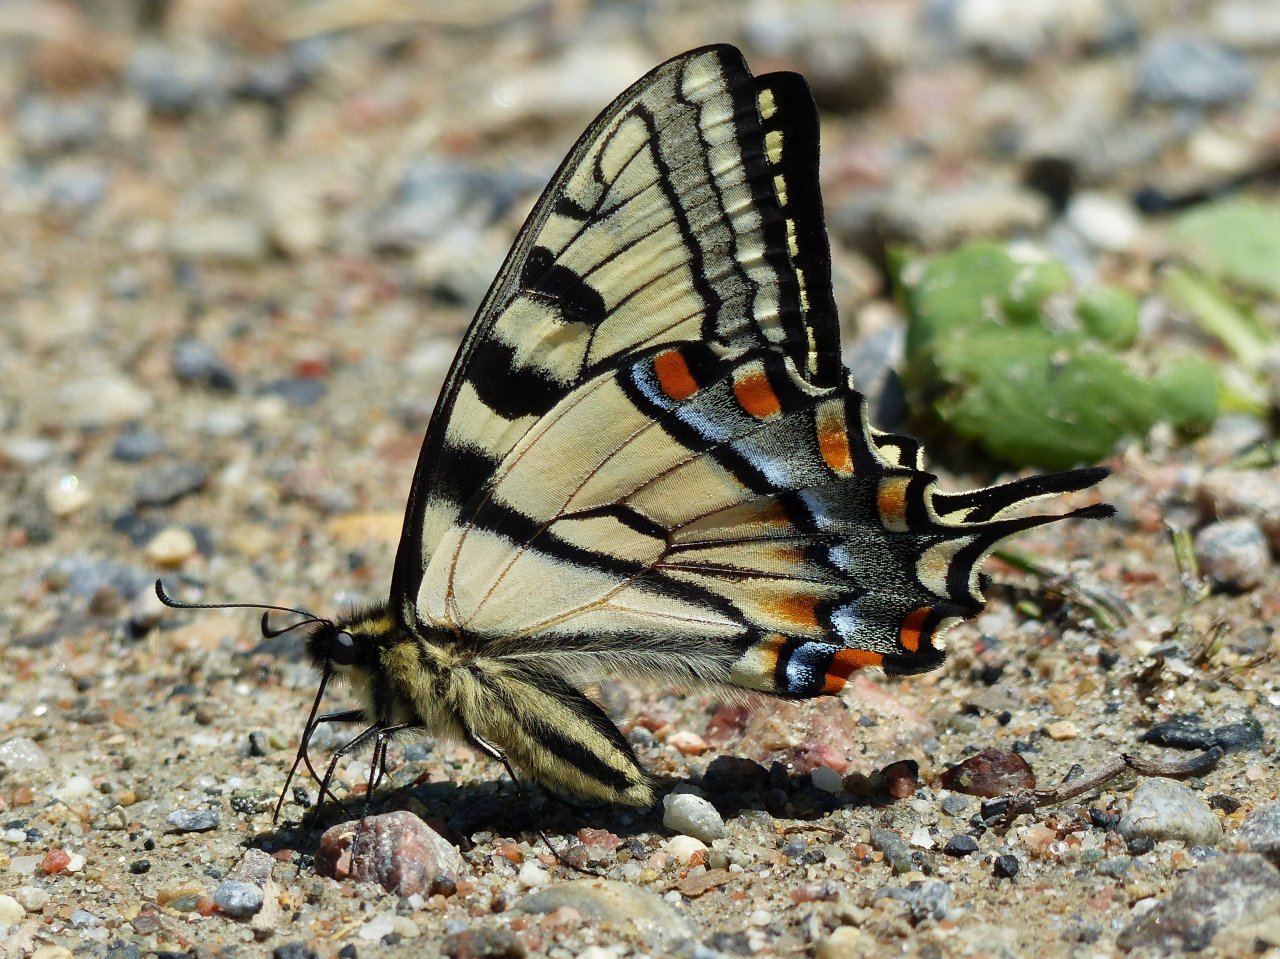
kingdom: Animalia
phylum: Arthropoda
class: Insecta
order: Lepidoptera
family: Papilionidae
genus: Pterourus
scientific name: Pterourus canadensis
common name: Canadian Tiger Swallowtail
